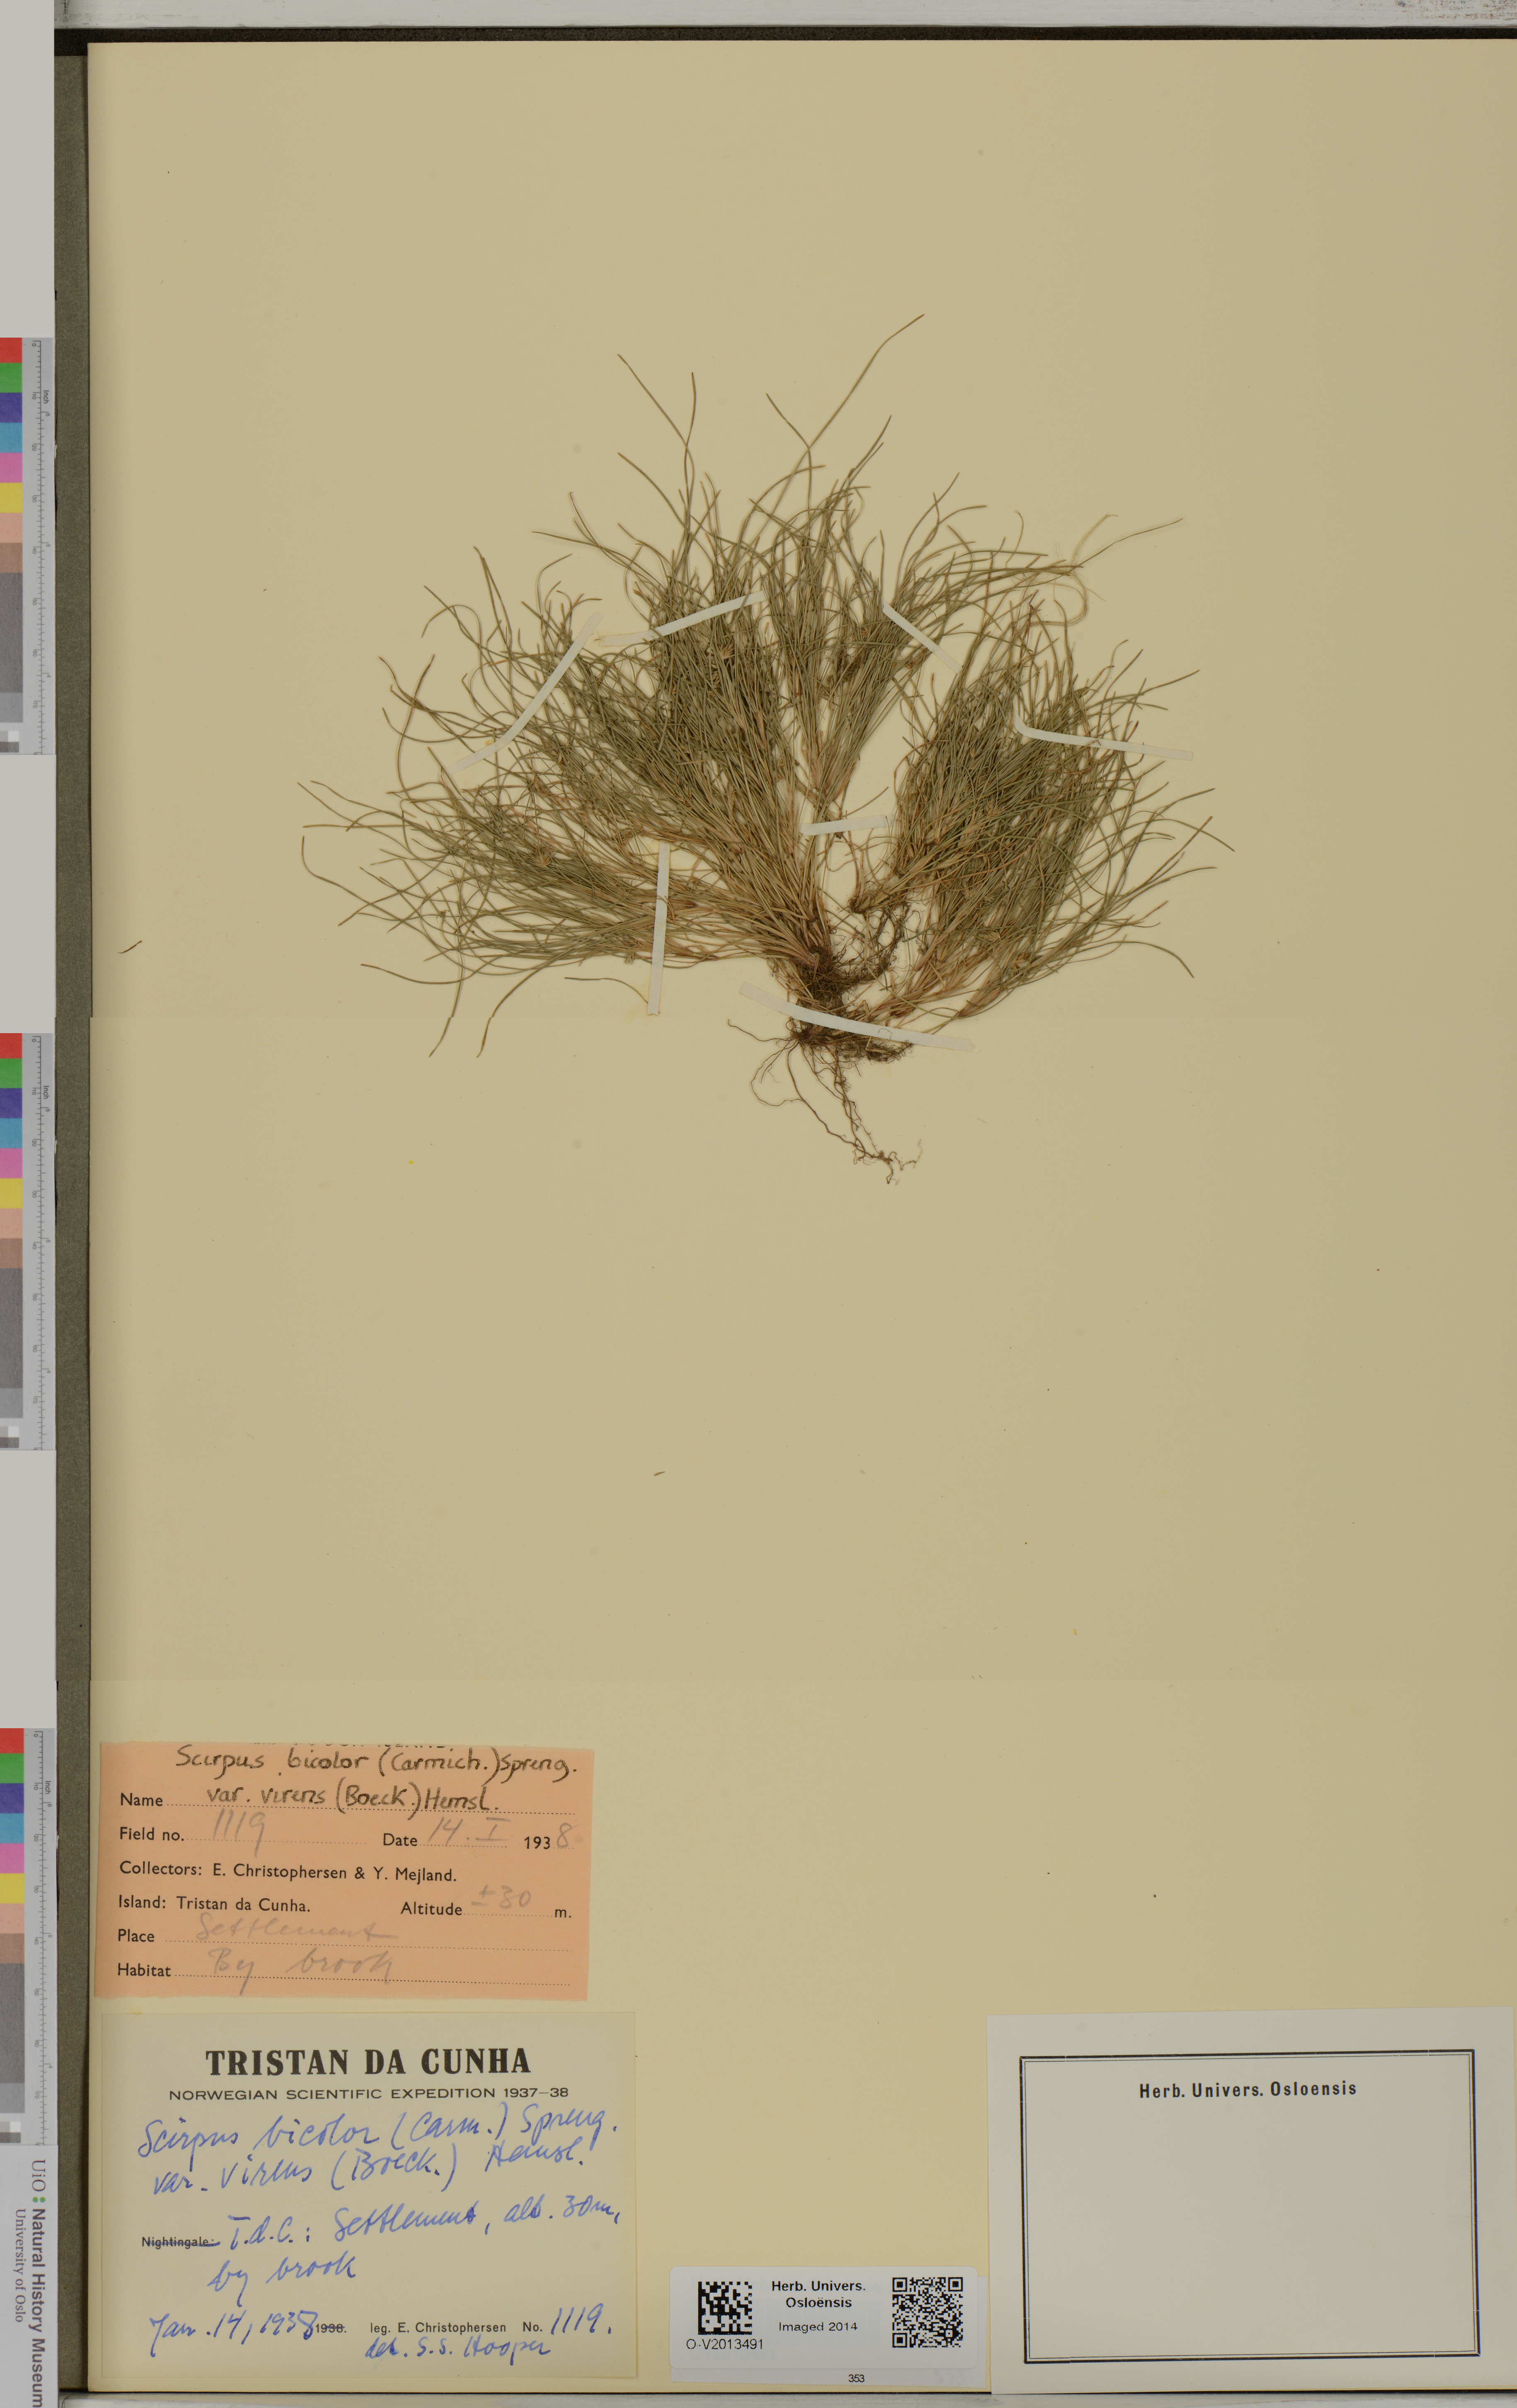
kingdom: Plantae
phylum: Tracheophyta
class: Liliopsida
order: Poales
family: Cyperaceae
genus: Isolepis
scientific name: Isolepis bicolor
